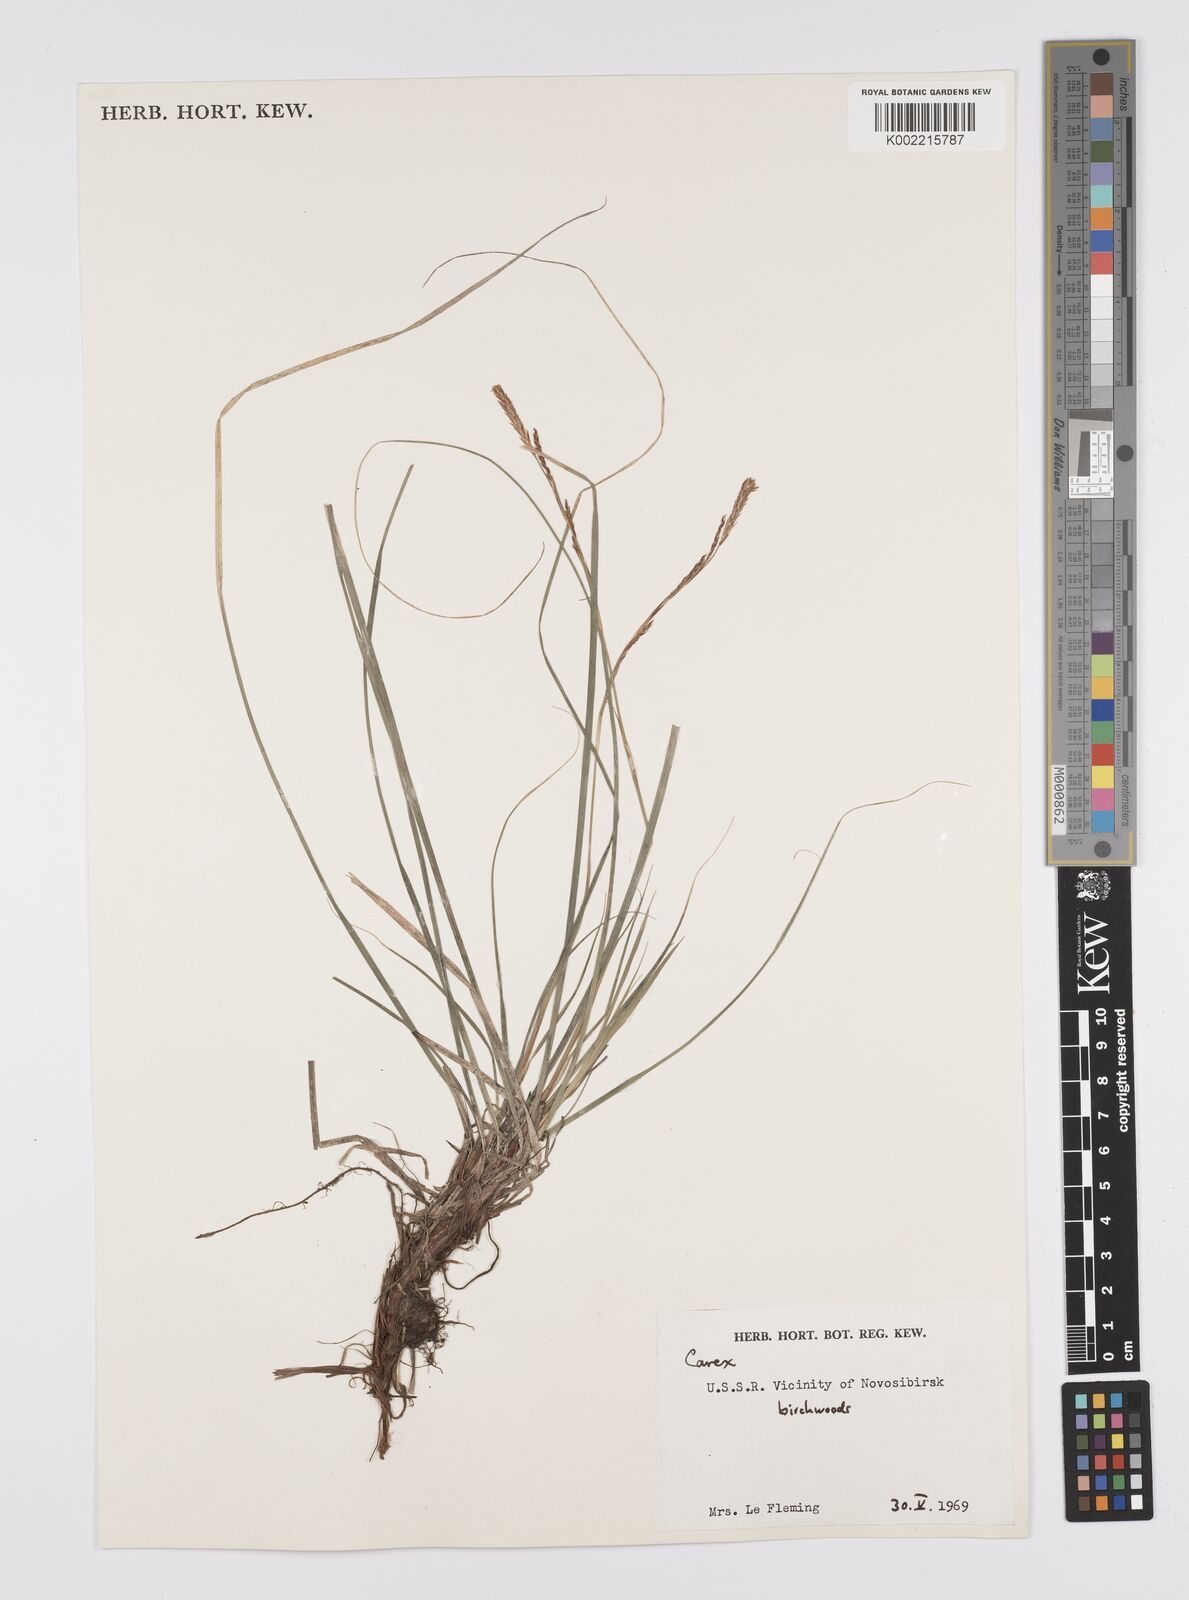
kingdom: Plantae
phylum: Tracheophyta
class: Liliopsida
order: Poales
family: Cyperaceae
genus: Carex
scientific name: Carex
